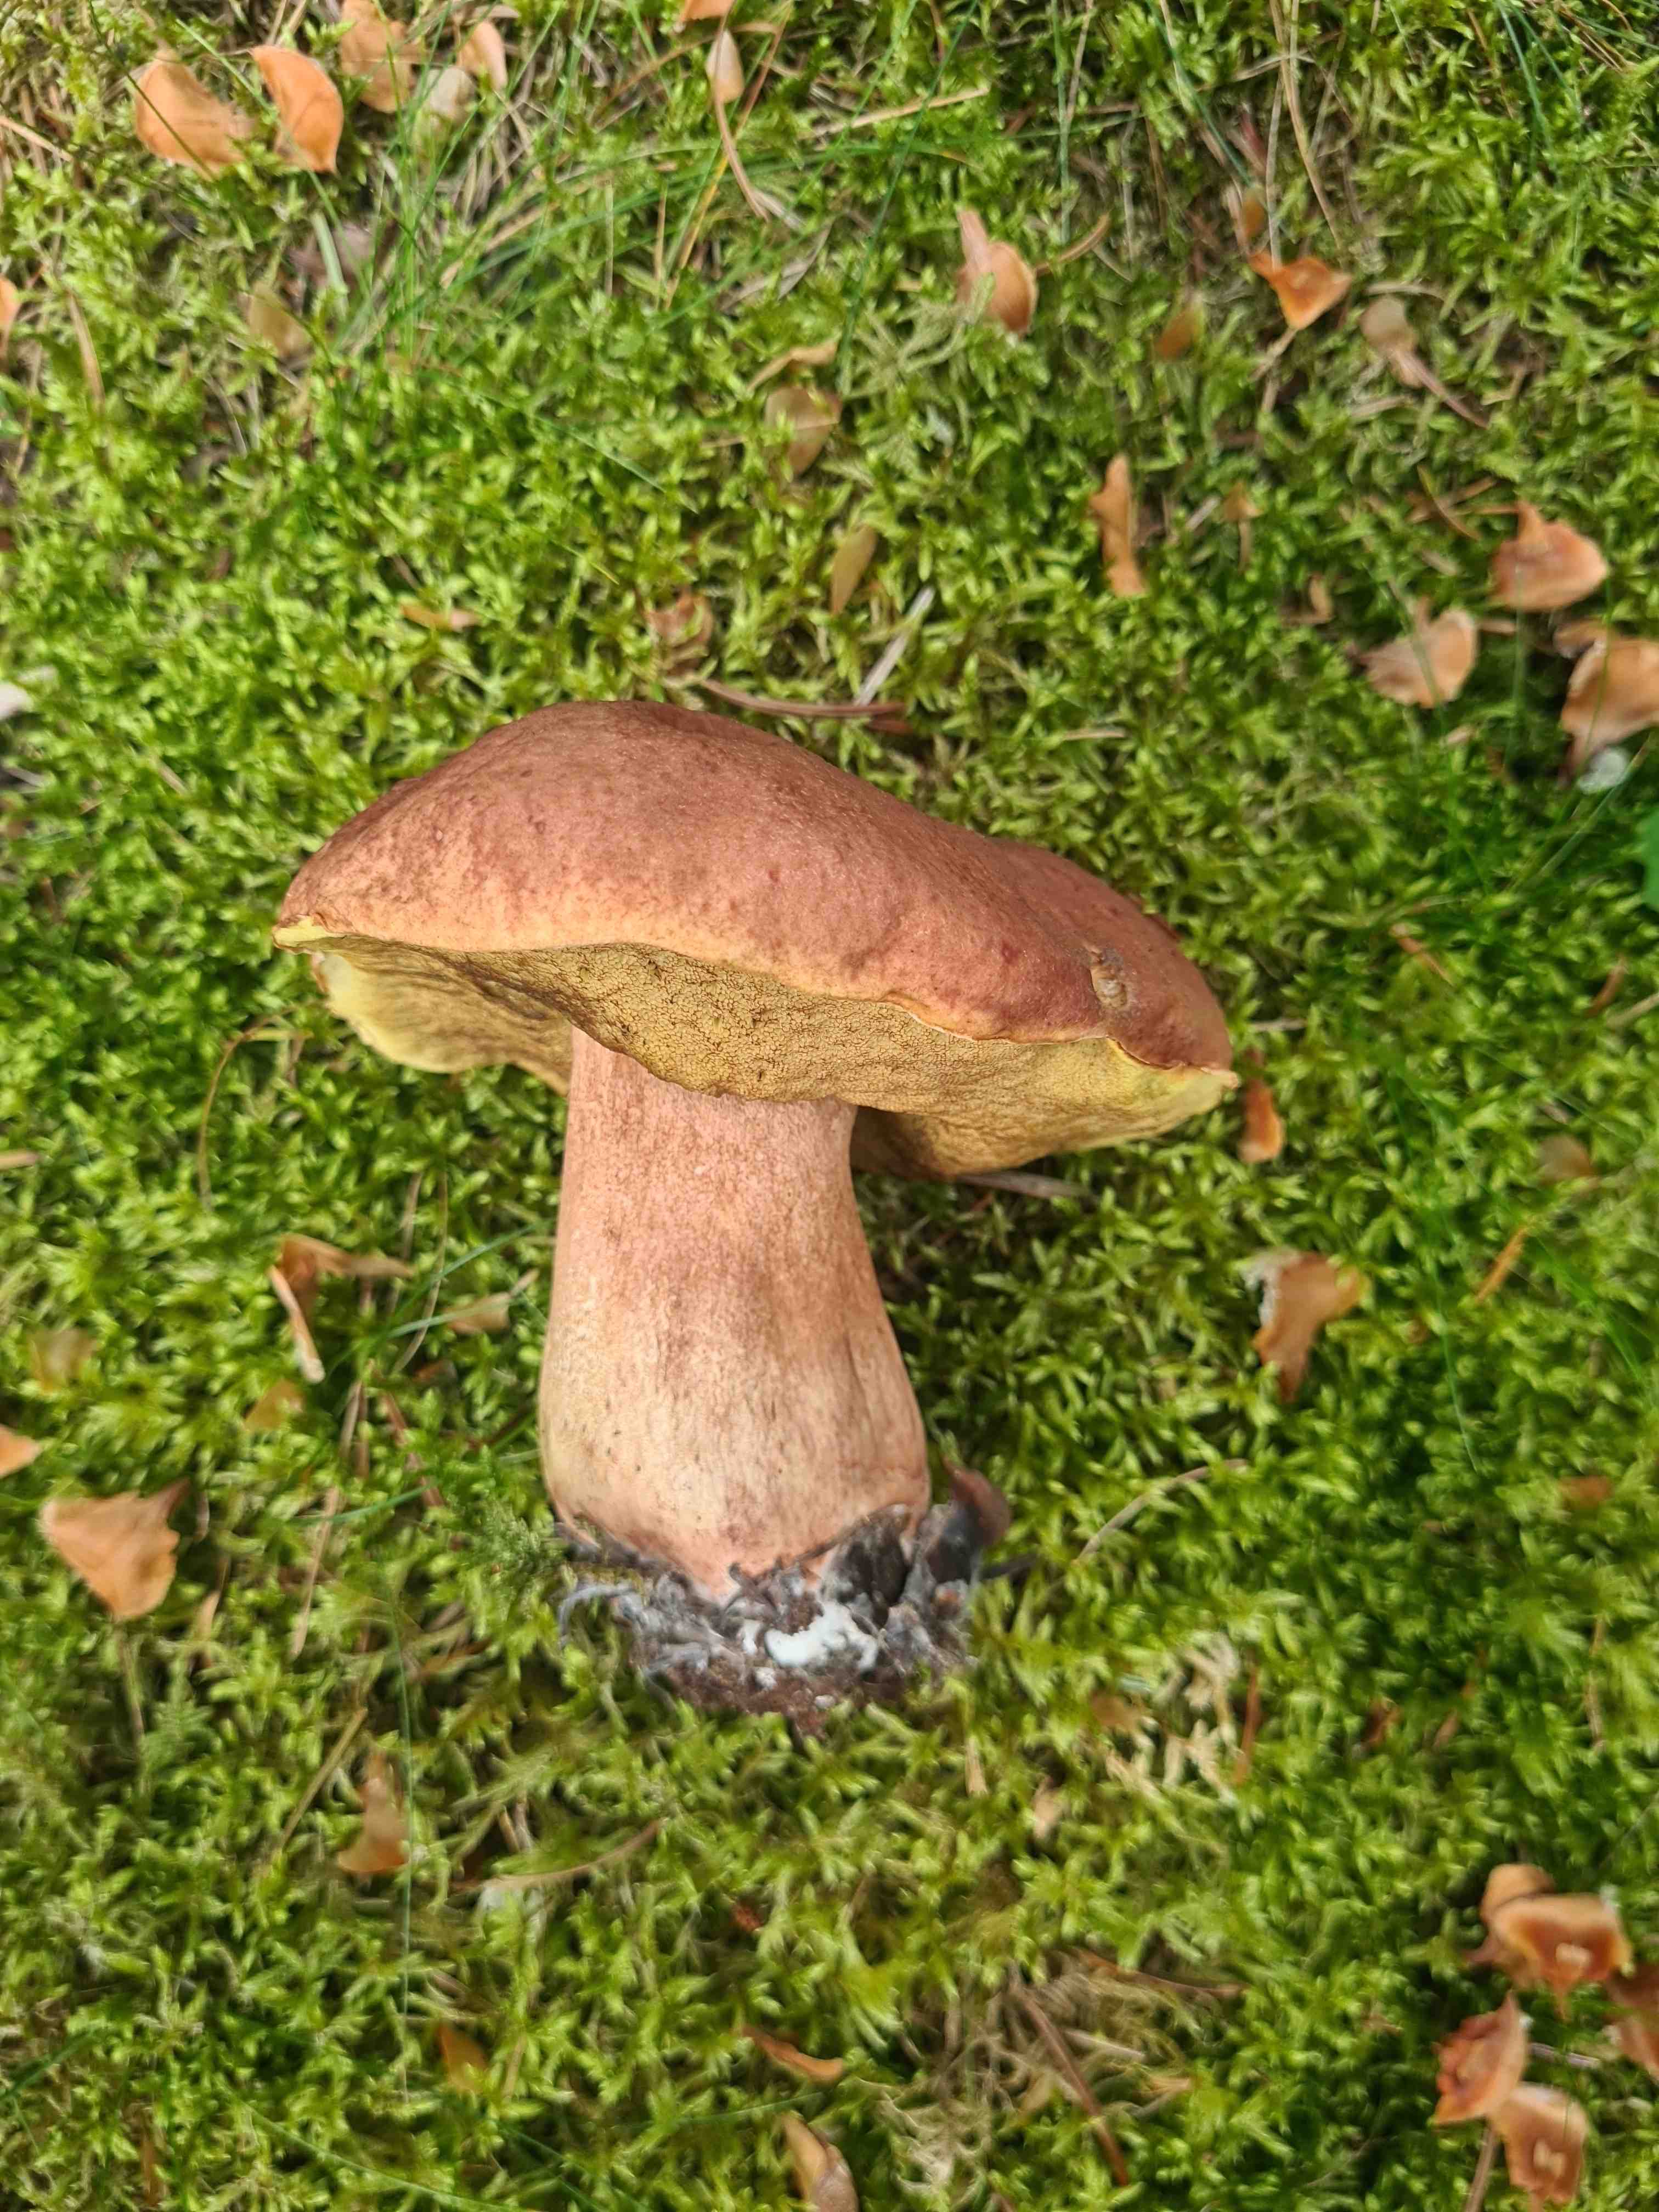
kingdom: Fungi
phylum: Basidiomycota
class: Agaricomycetes
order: Boletales
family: Boletaceae
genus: Boletus
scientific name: Boletus pinophilus
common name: rødbrun rørhat
